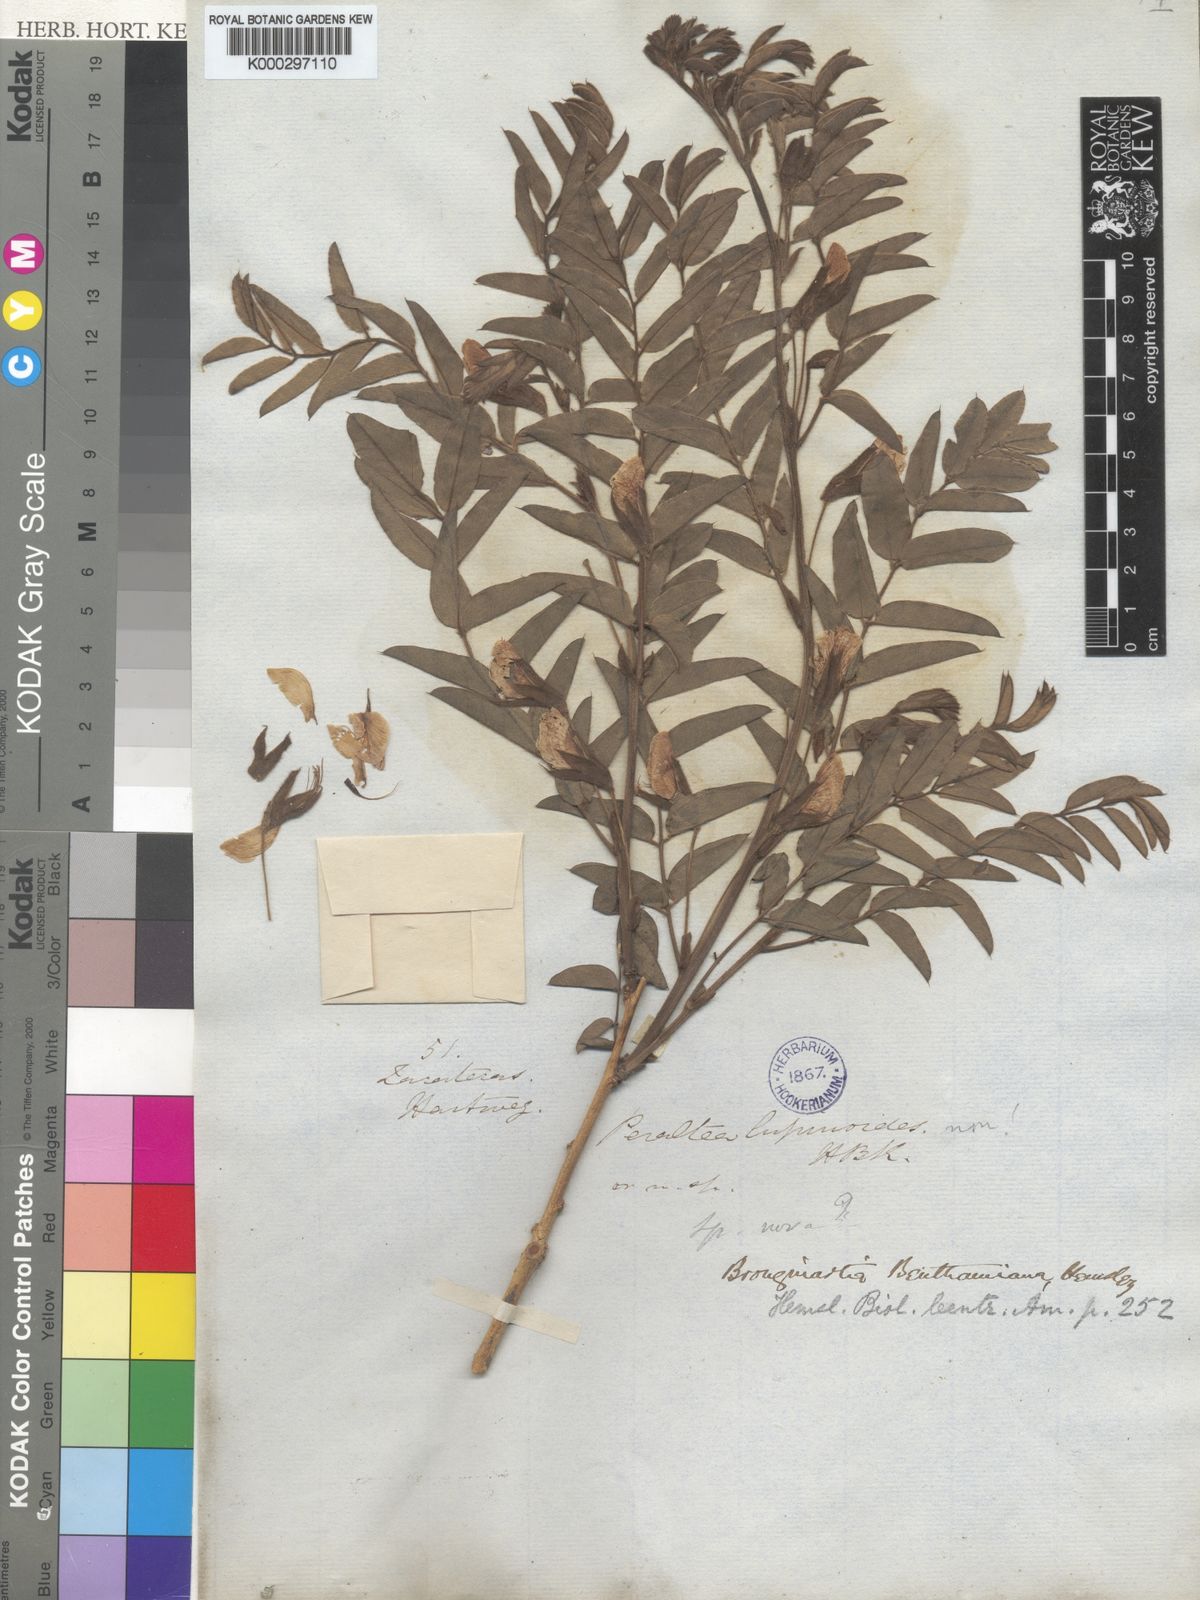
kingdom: Plantae
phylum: Tracheophyta
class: Magnoliopsida
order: Fabales
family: Fabaceae
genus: Brongniartia
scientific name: Brongniartia benthamiana
